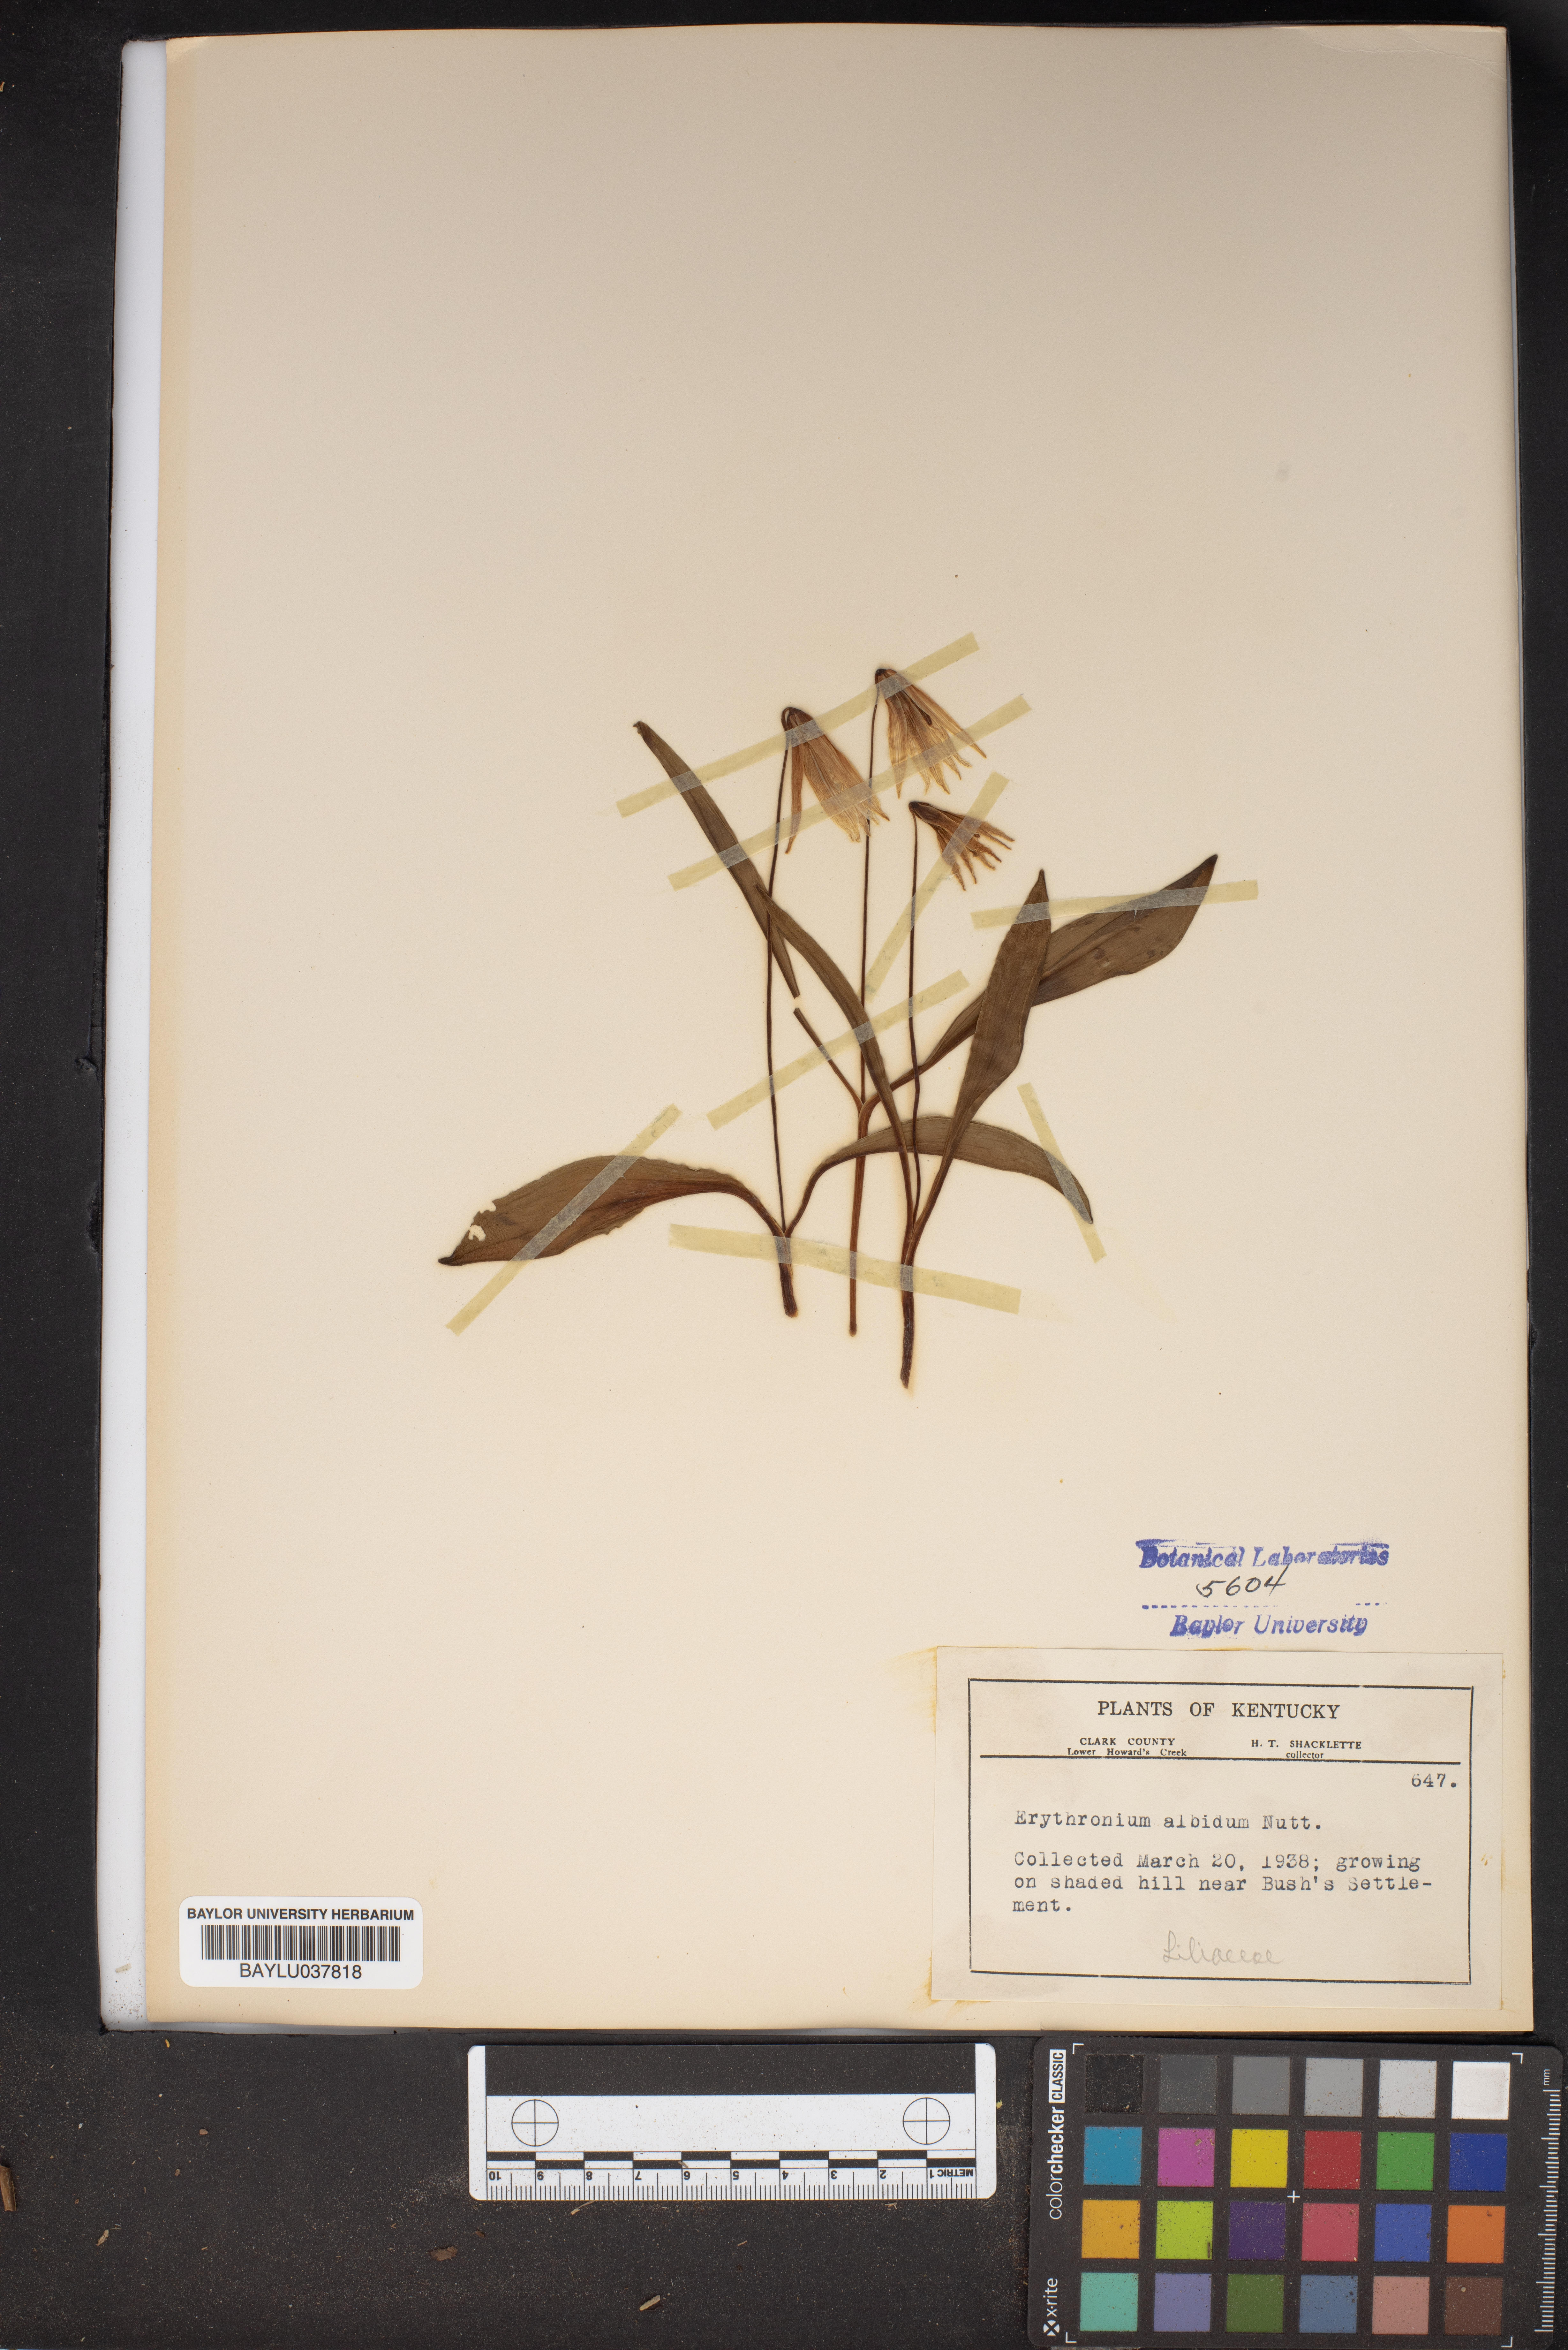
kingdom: Plantae
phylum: Tracheophyta
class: Liliopsida
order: Liliales
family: Liliaceae
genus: Erythronium
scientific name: Erythronium albidum
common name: White trout-lily
